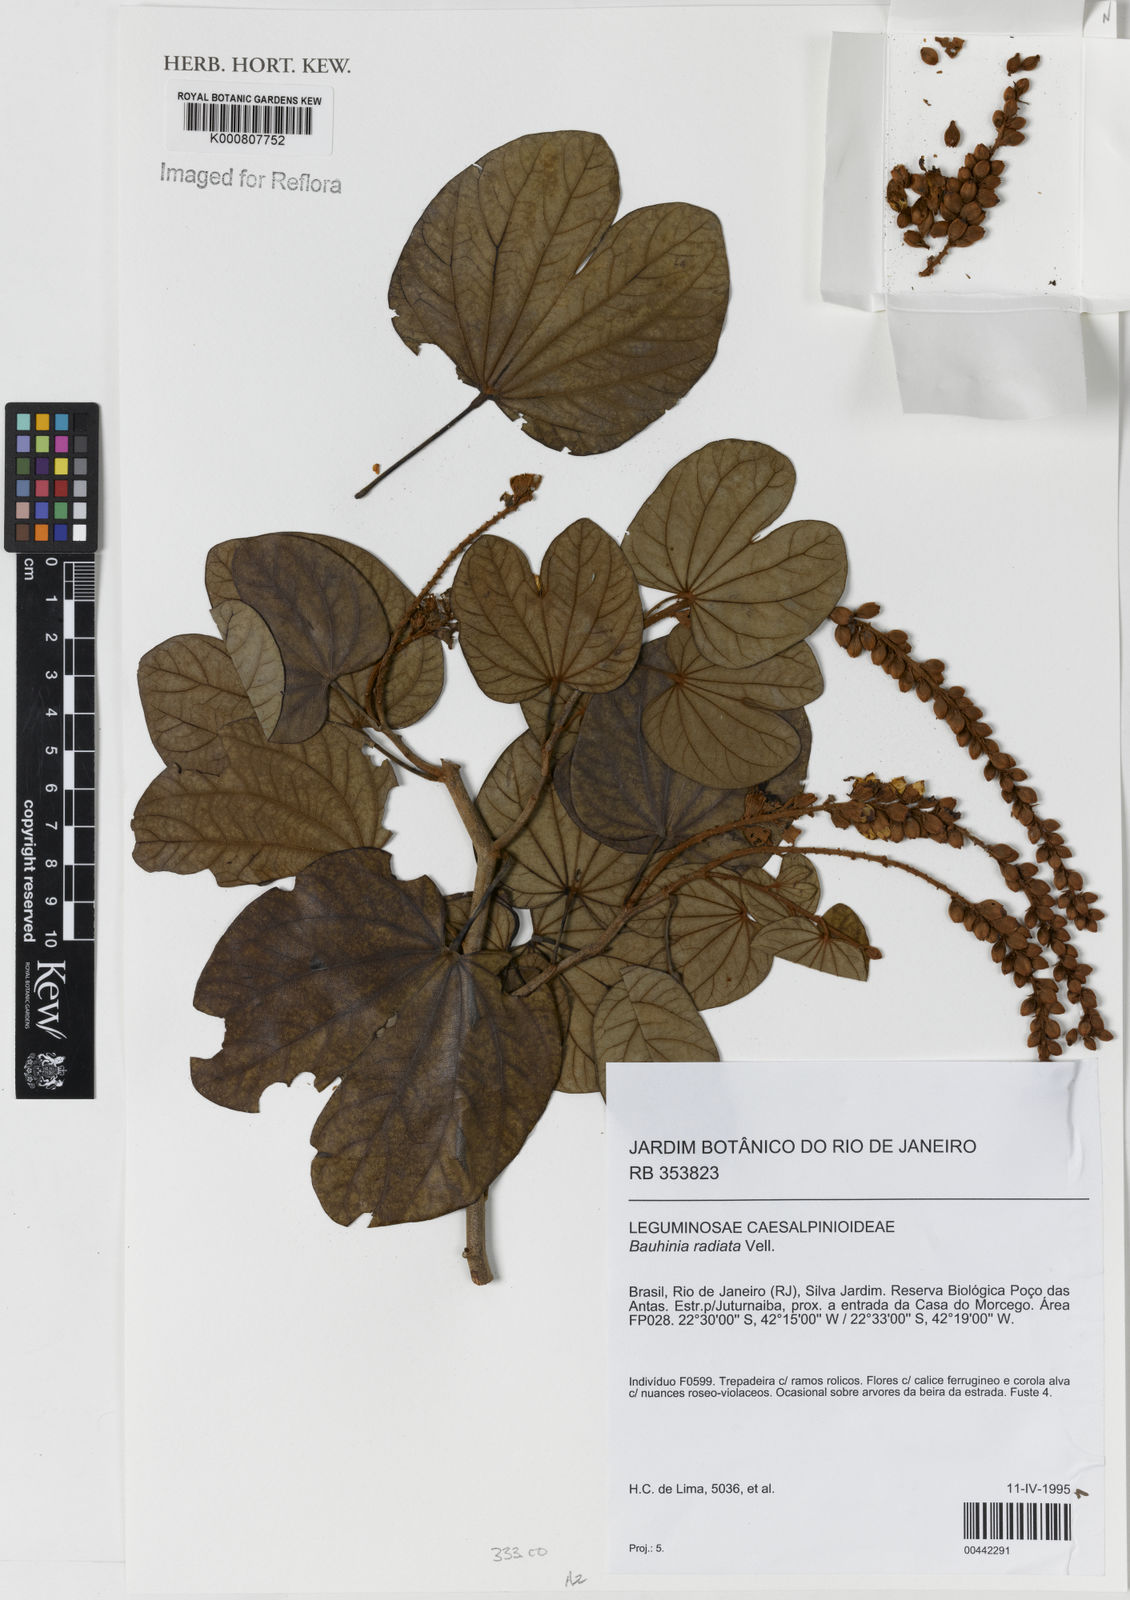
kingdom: Plantae
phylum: Tracheophyta
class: Magnoliopsida
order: Fabales
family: Fabaceae
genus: Schnella
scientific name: Schnella macrostachya
